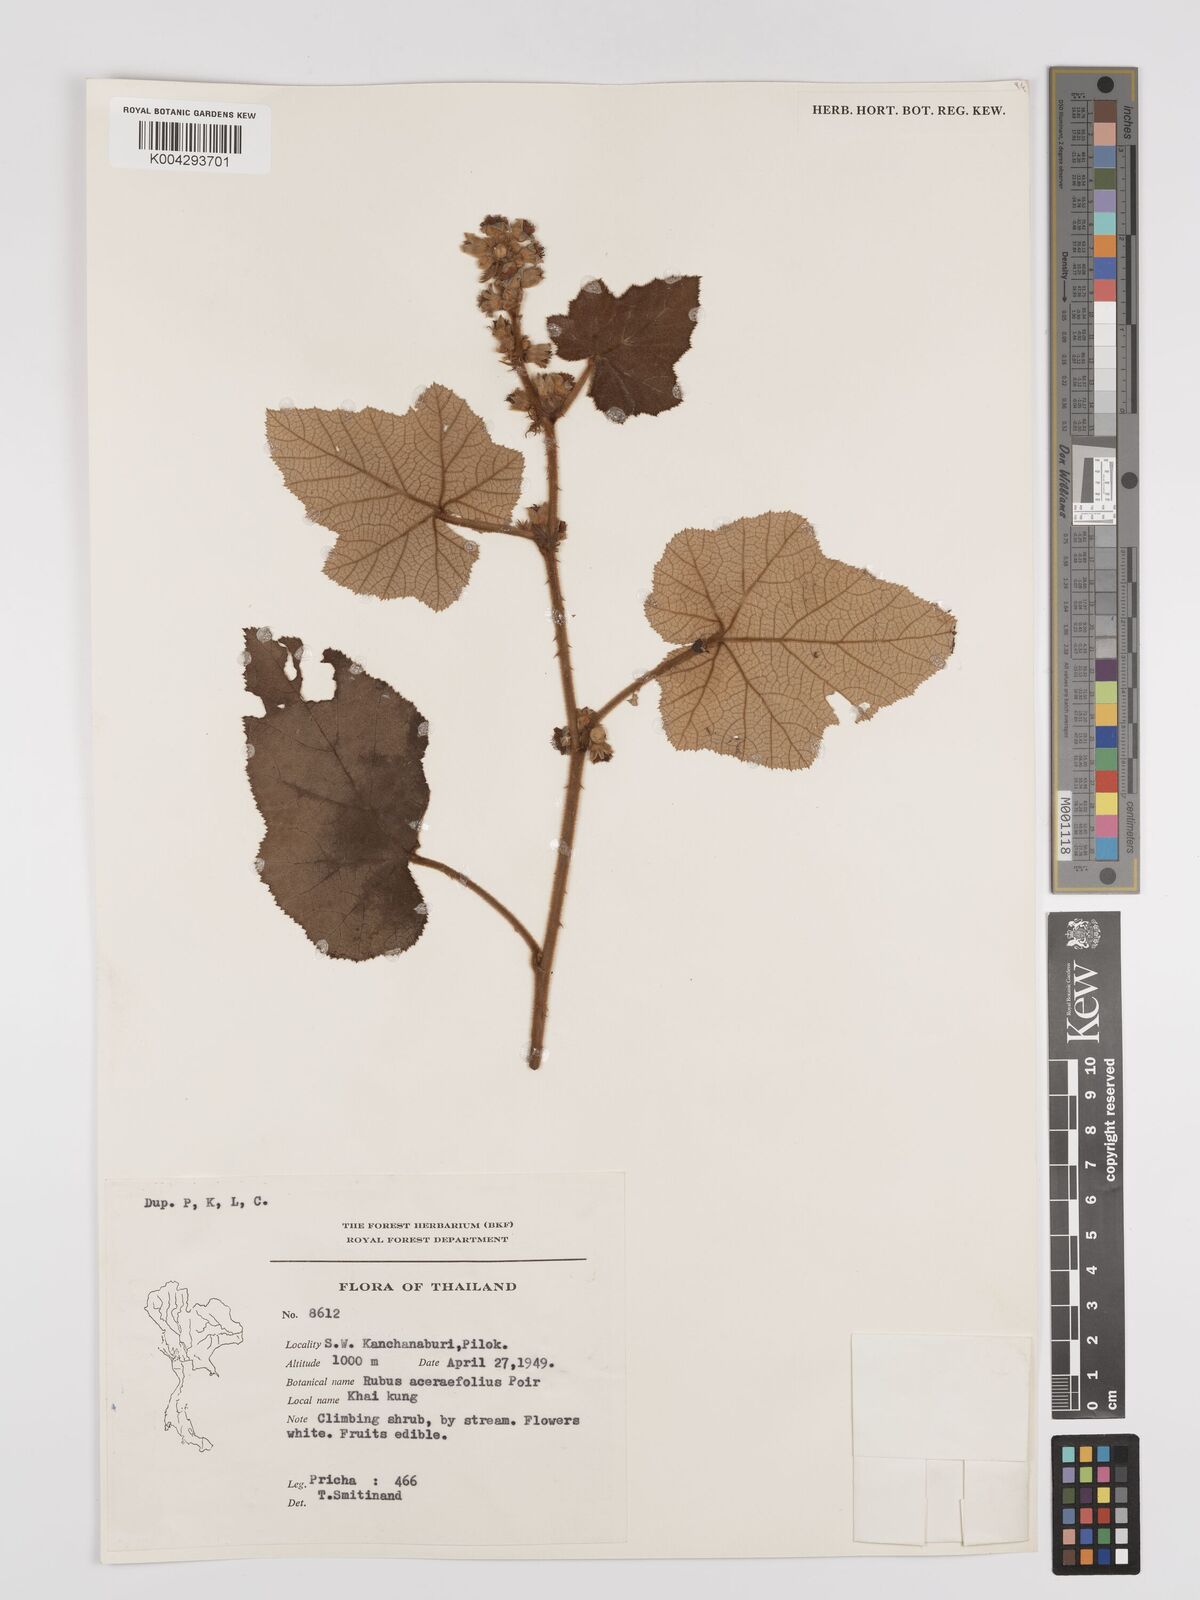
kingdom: Plantae
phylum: Tracheophyta
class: Magnoliopsida
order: Rosales
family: Rosaceae
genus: Rubus
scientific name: Rubus rufus
